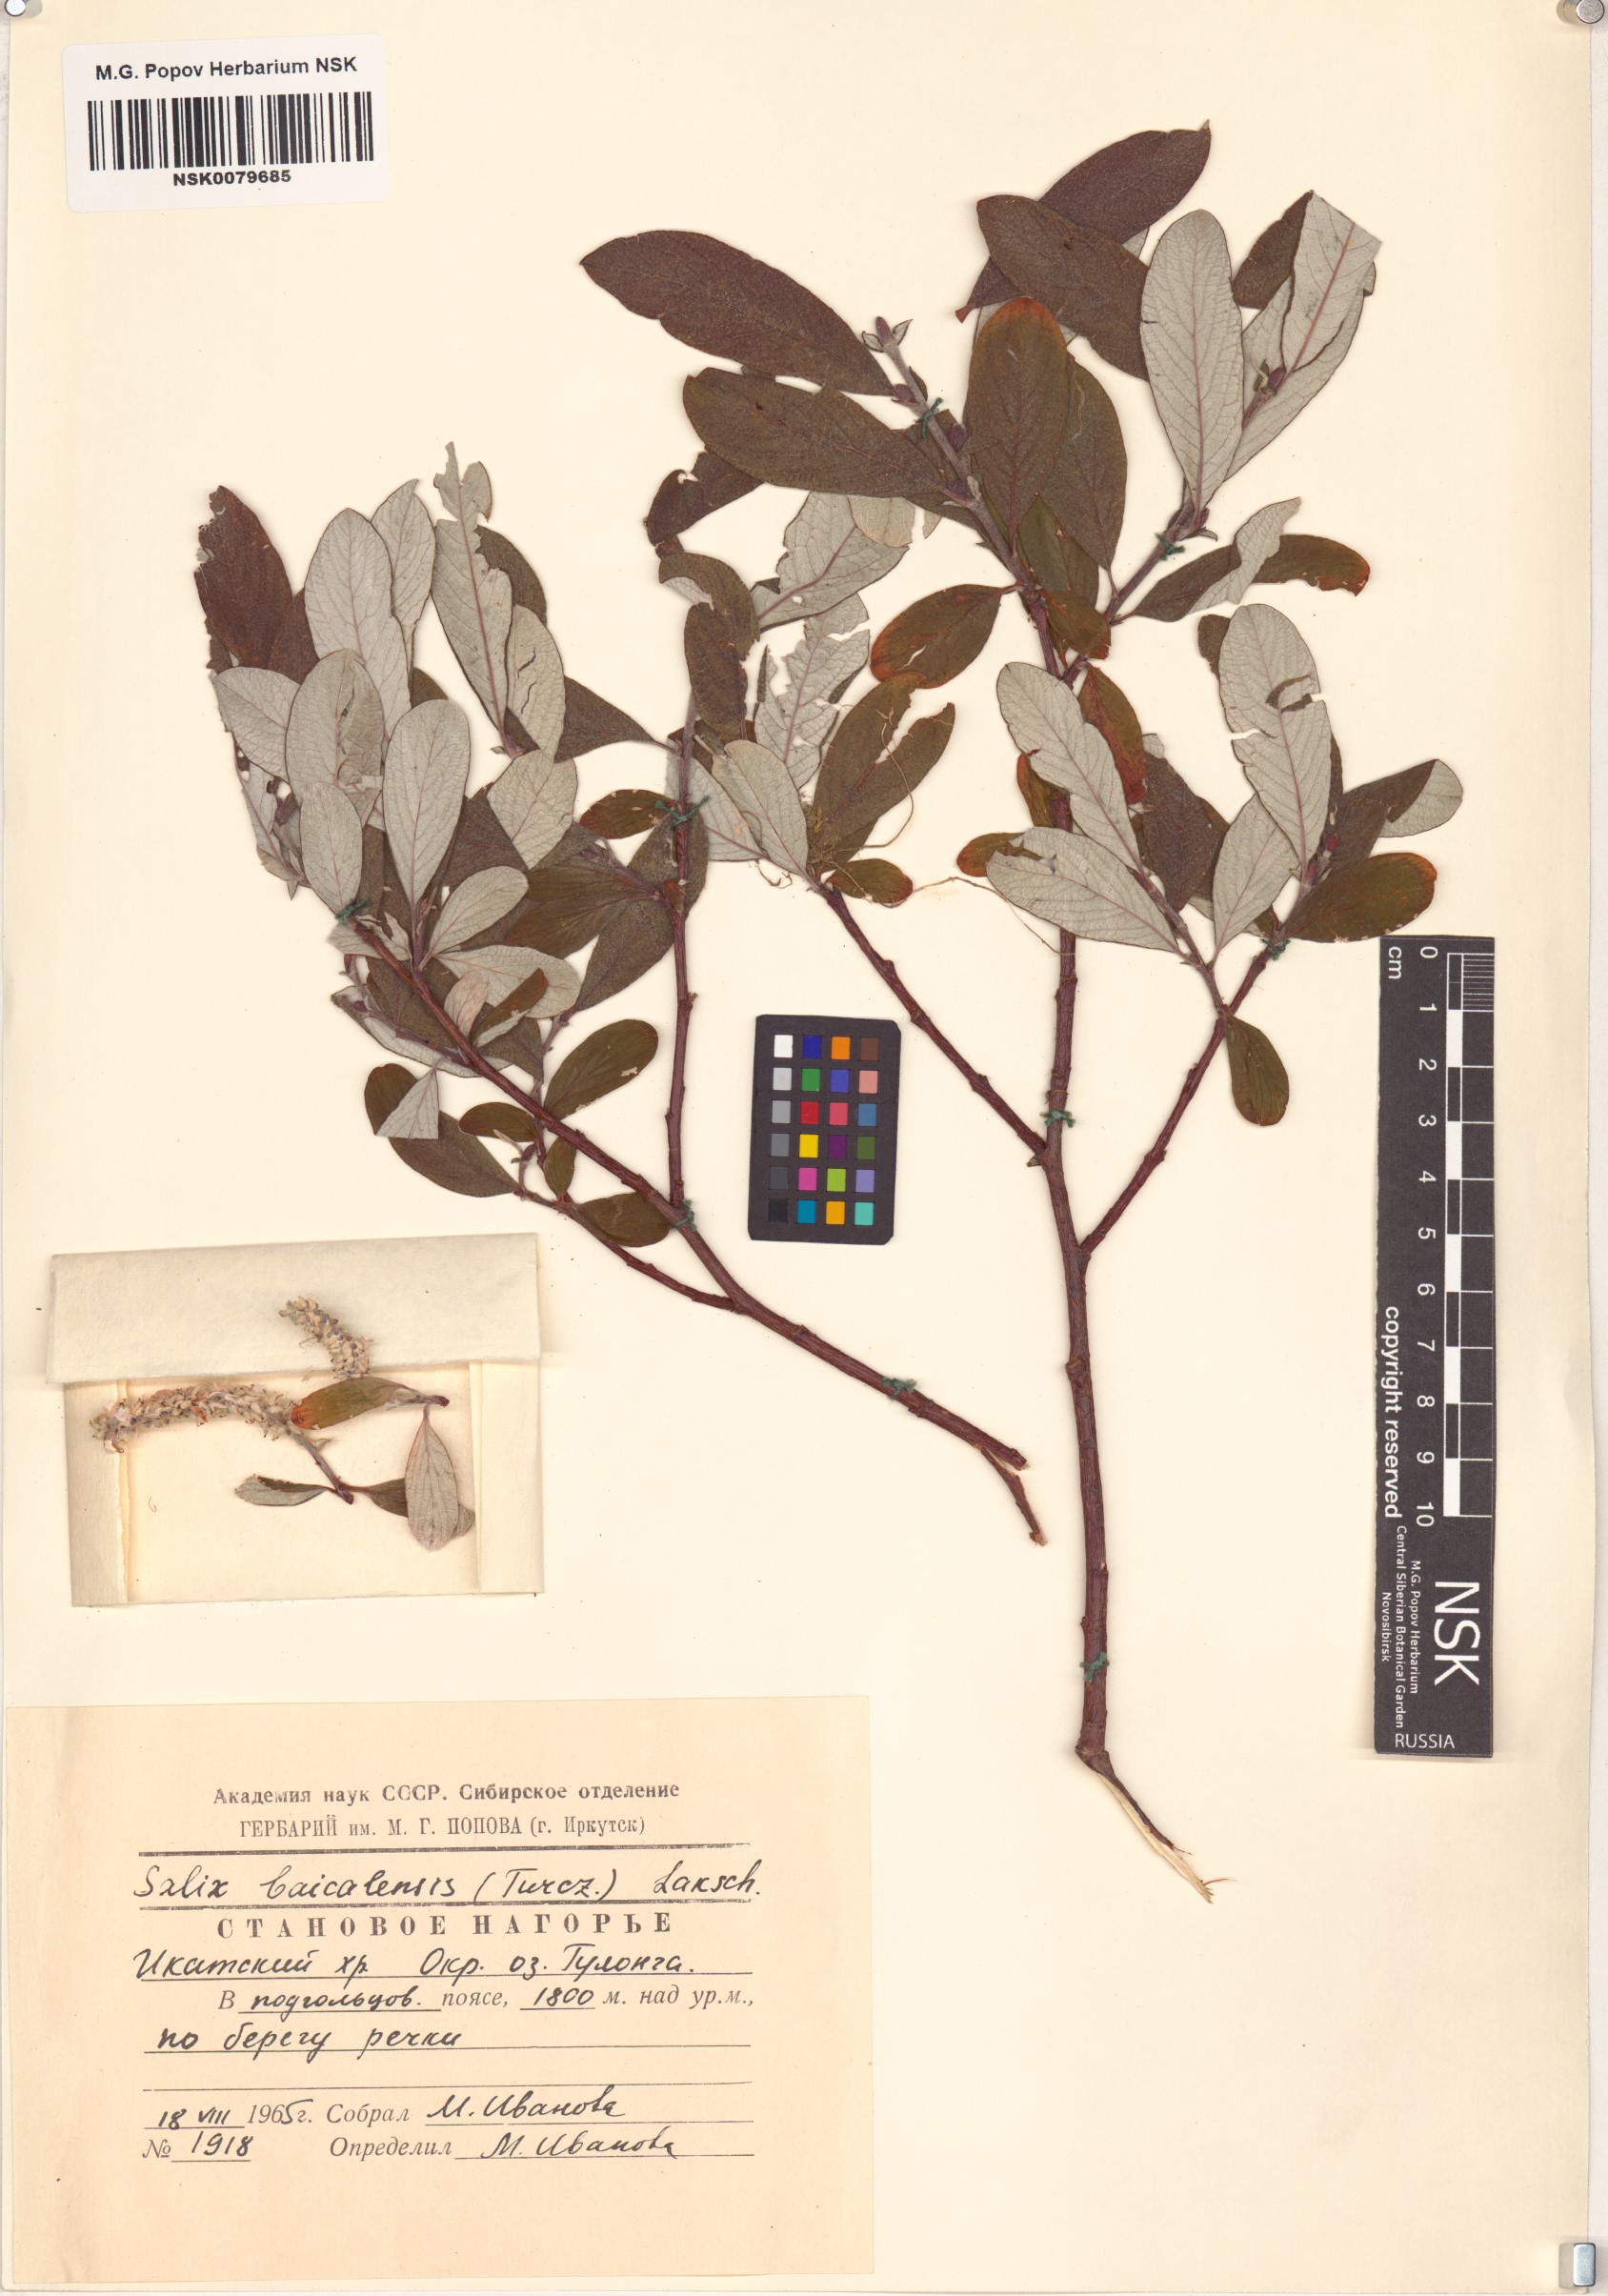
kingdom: Plantae
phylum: Tracheophyta
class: Magnoliopsida
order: Malpighiales
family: Salicaceae
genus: Salix
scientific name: Salix krylovii
